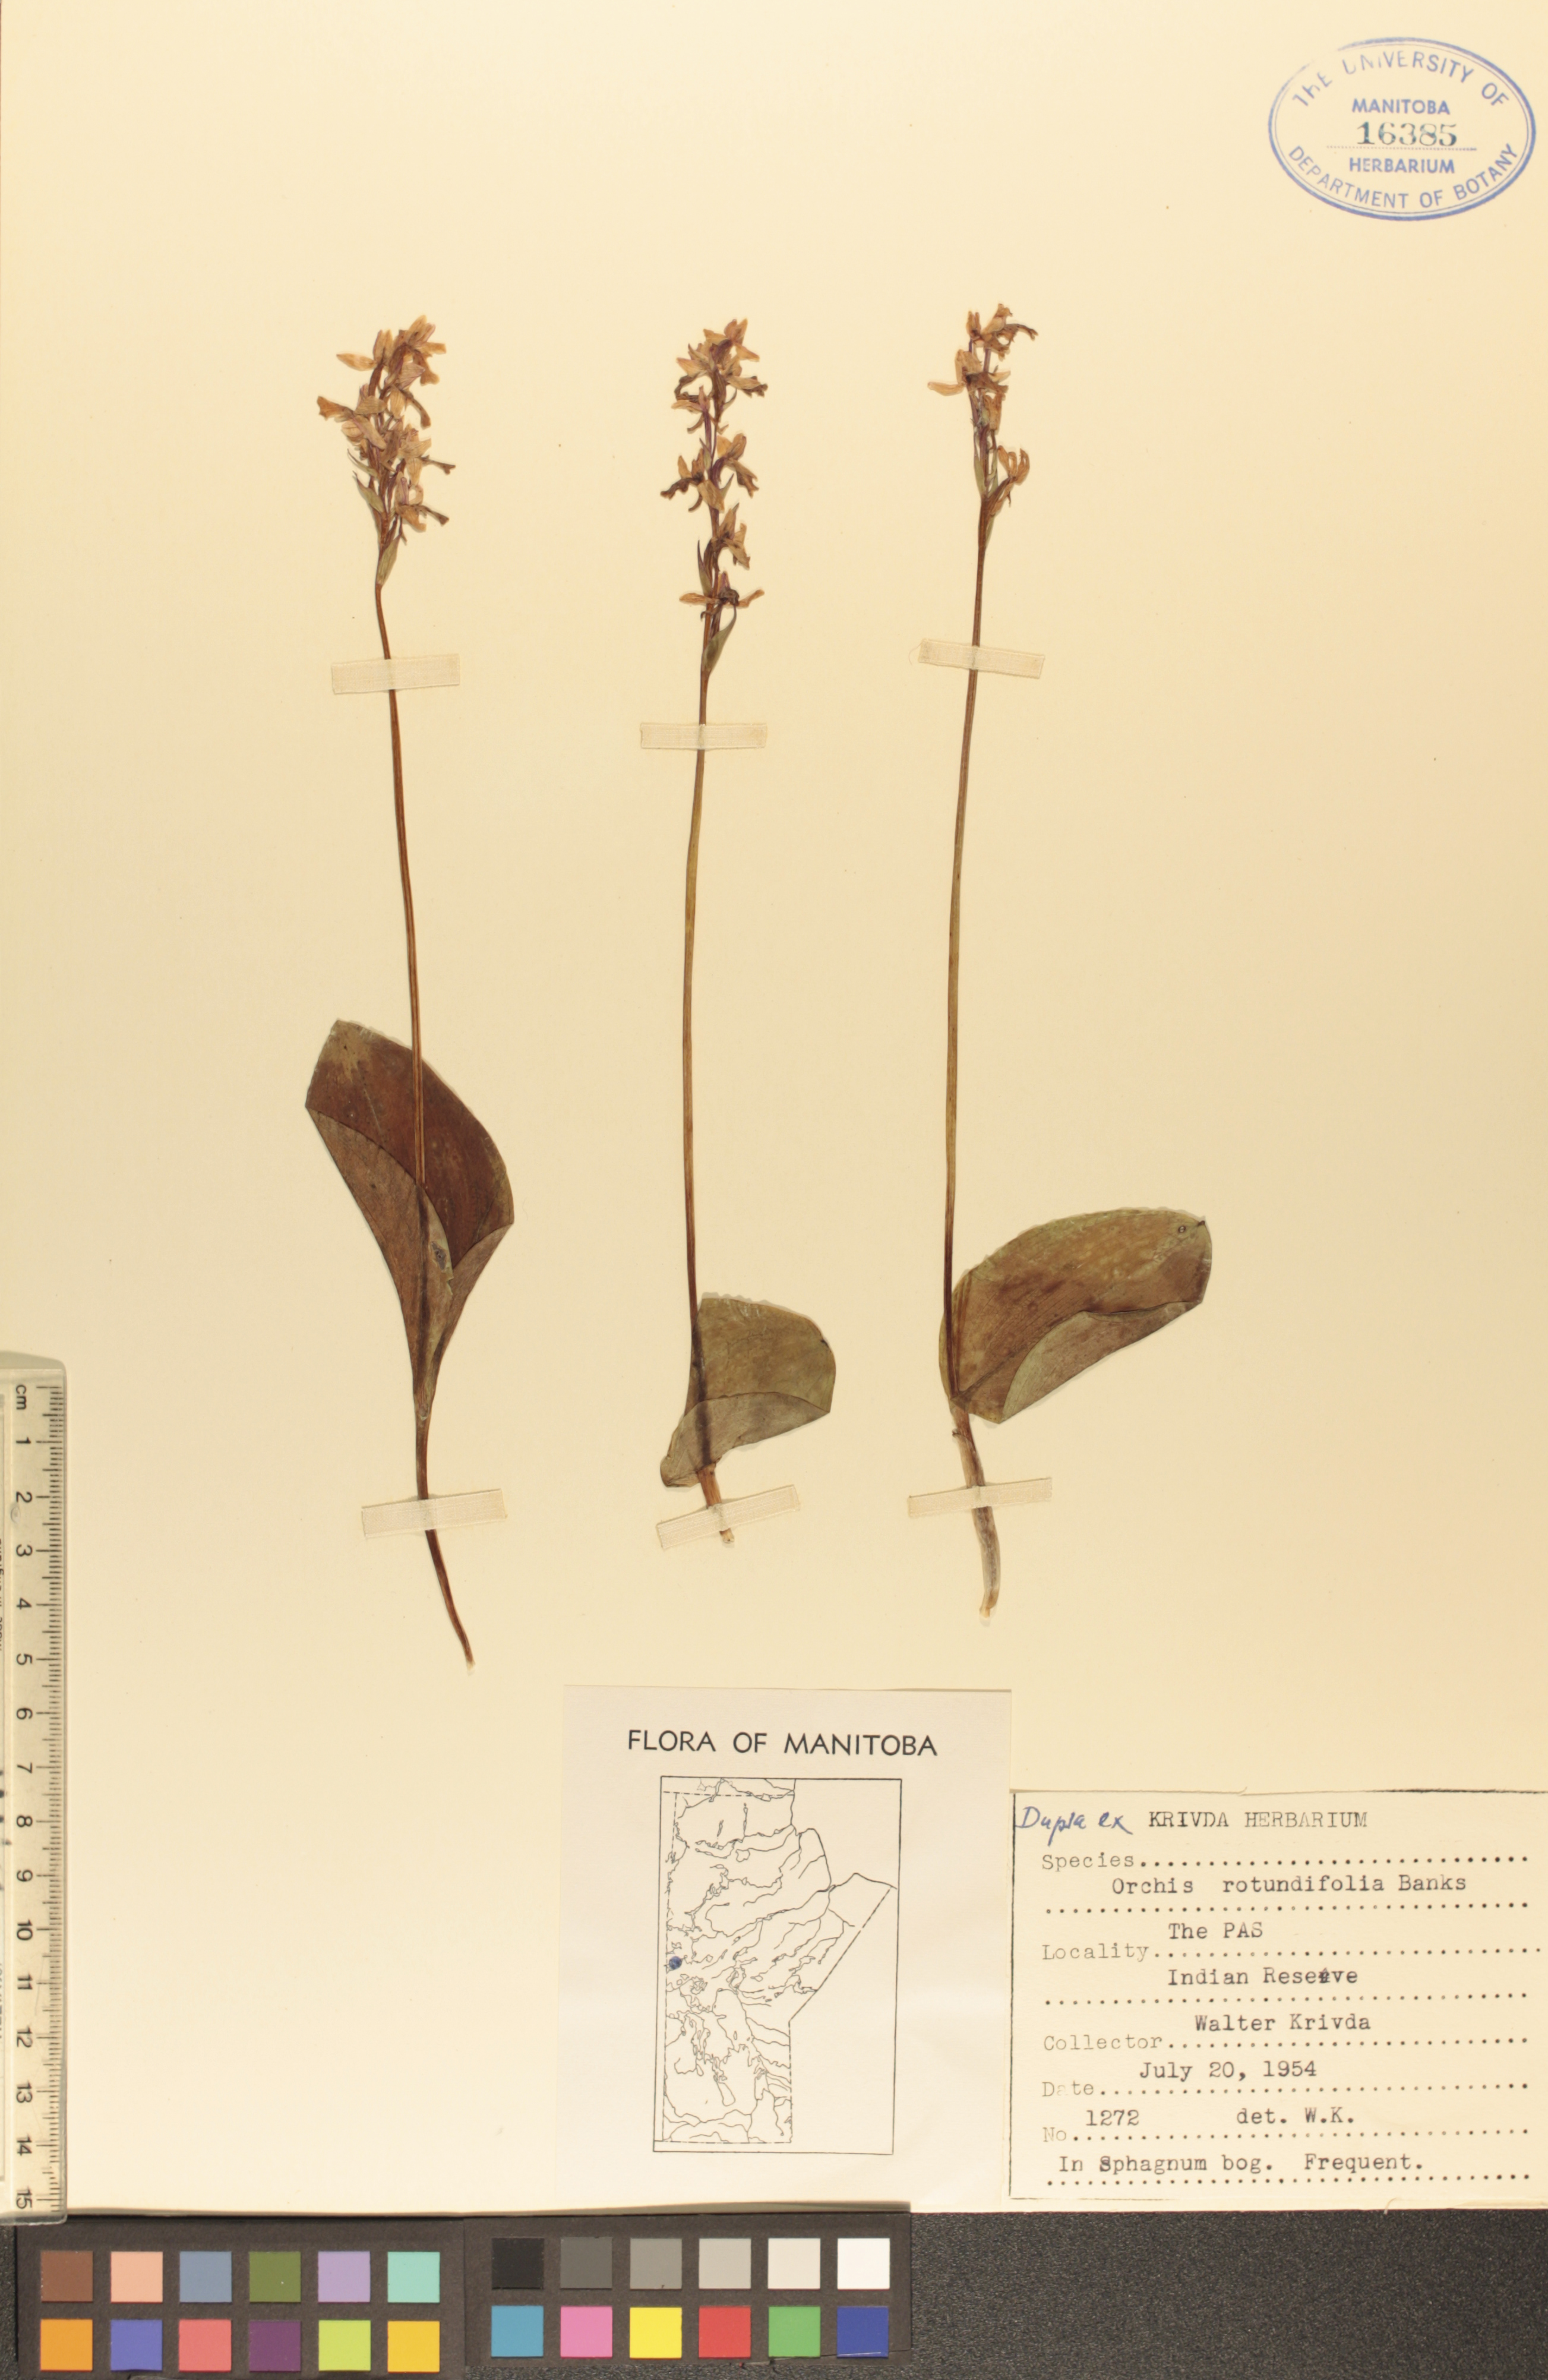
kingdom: Plantae
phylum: Tracheophyta
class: Liliopsida
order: Asparagales
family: Orchidaceae
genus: Galearis
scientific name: Galearis rotundifolia
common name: One-leaved orchis
